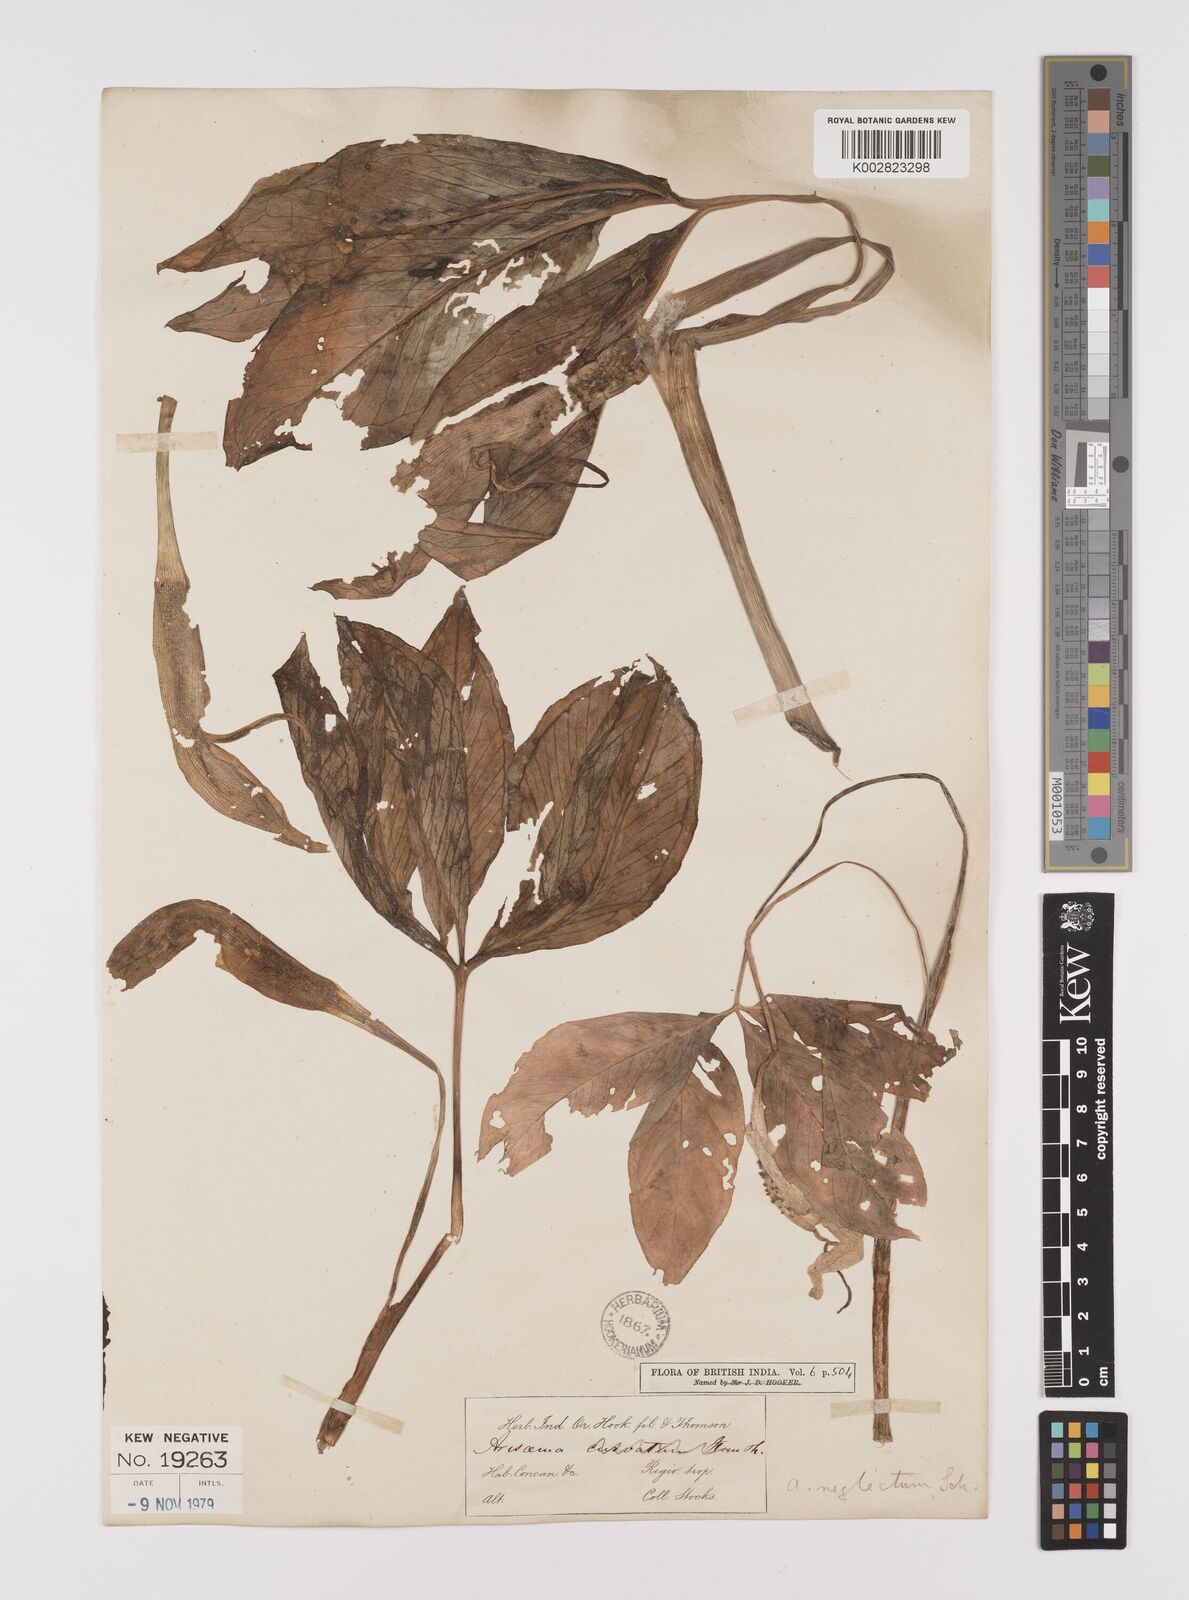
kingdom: Plantae
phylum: Tracheophyta
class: Liliopsida
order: Alismatales
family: Araceae
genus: Arisaema
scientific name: Arisaema tortuosum
